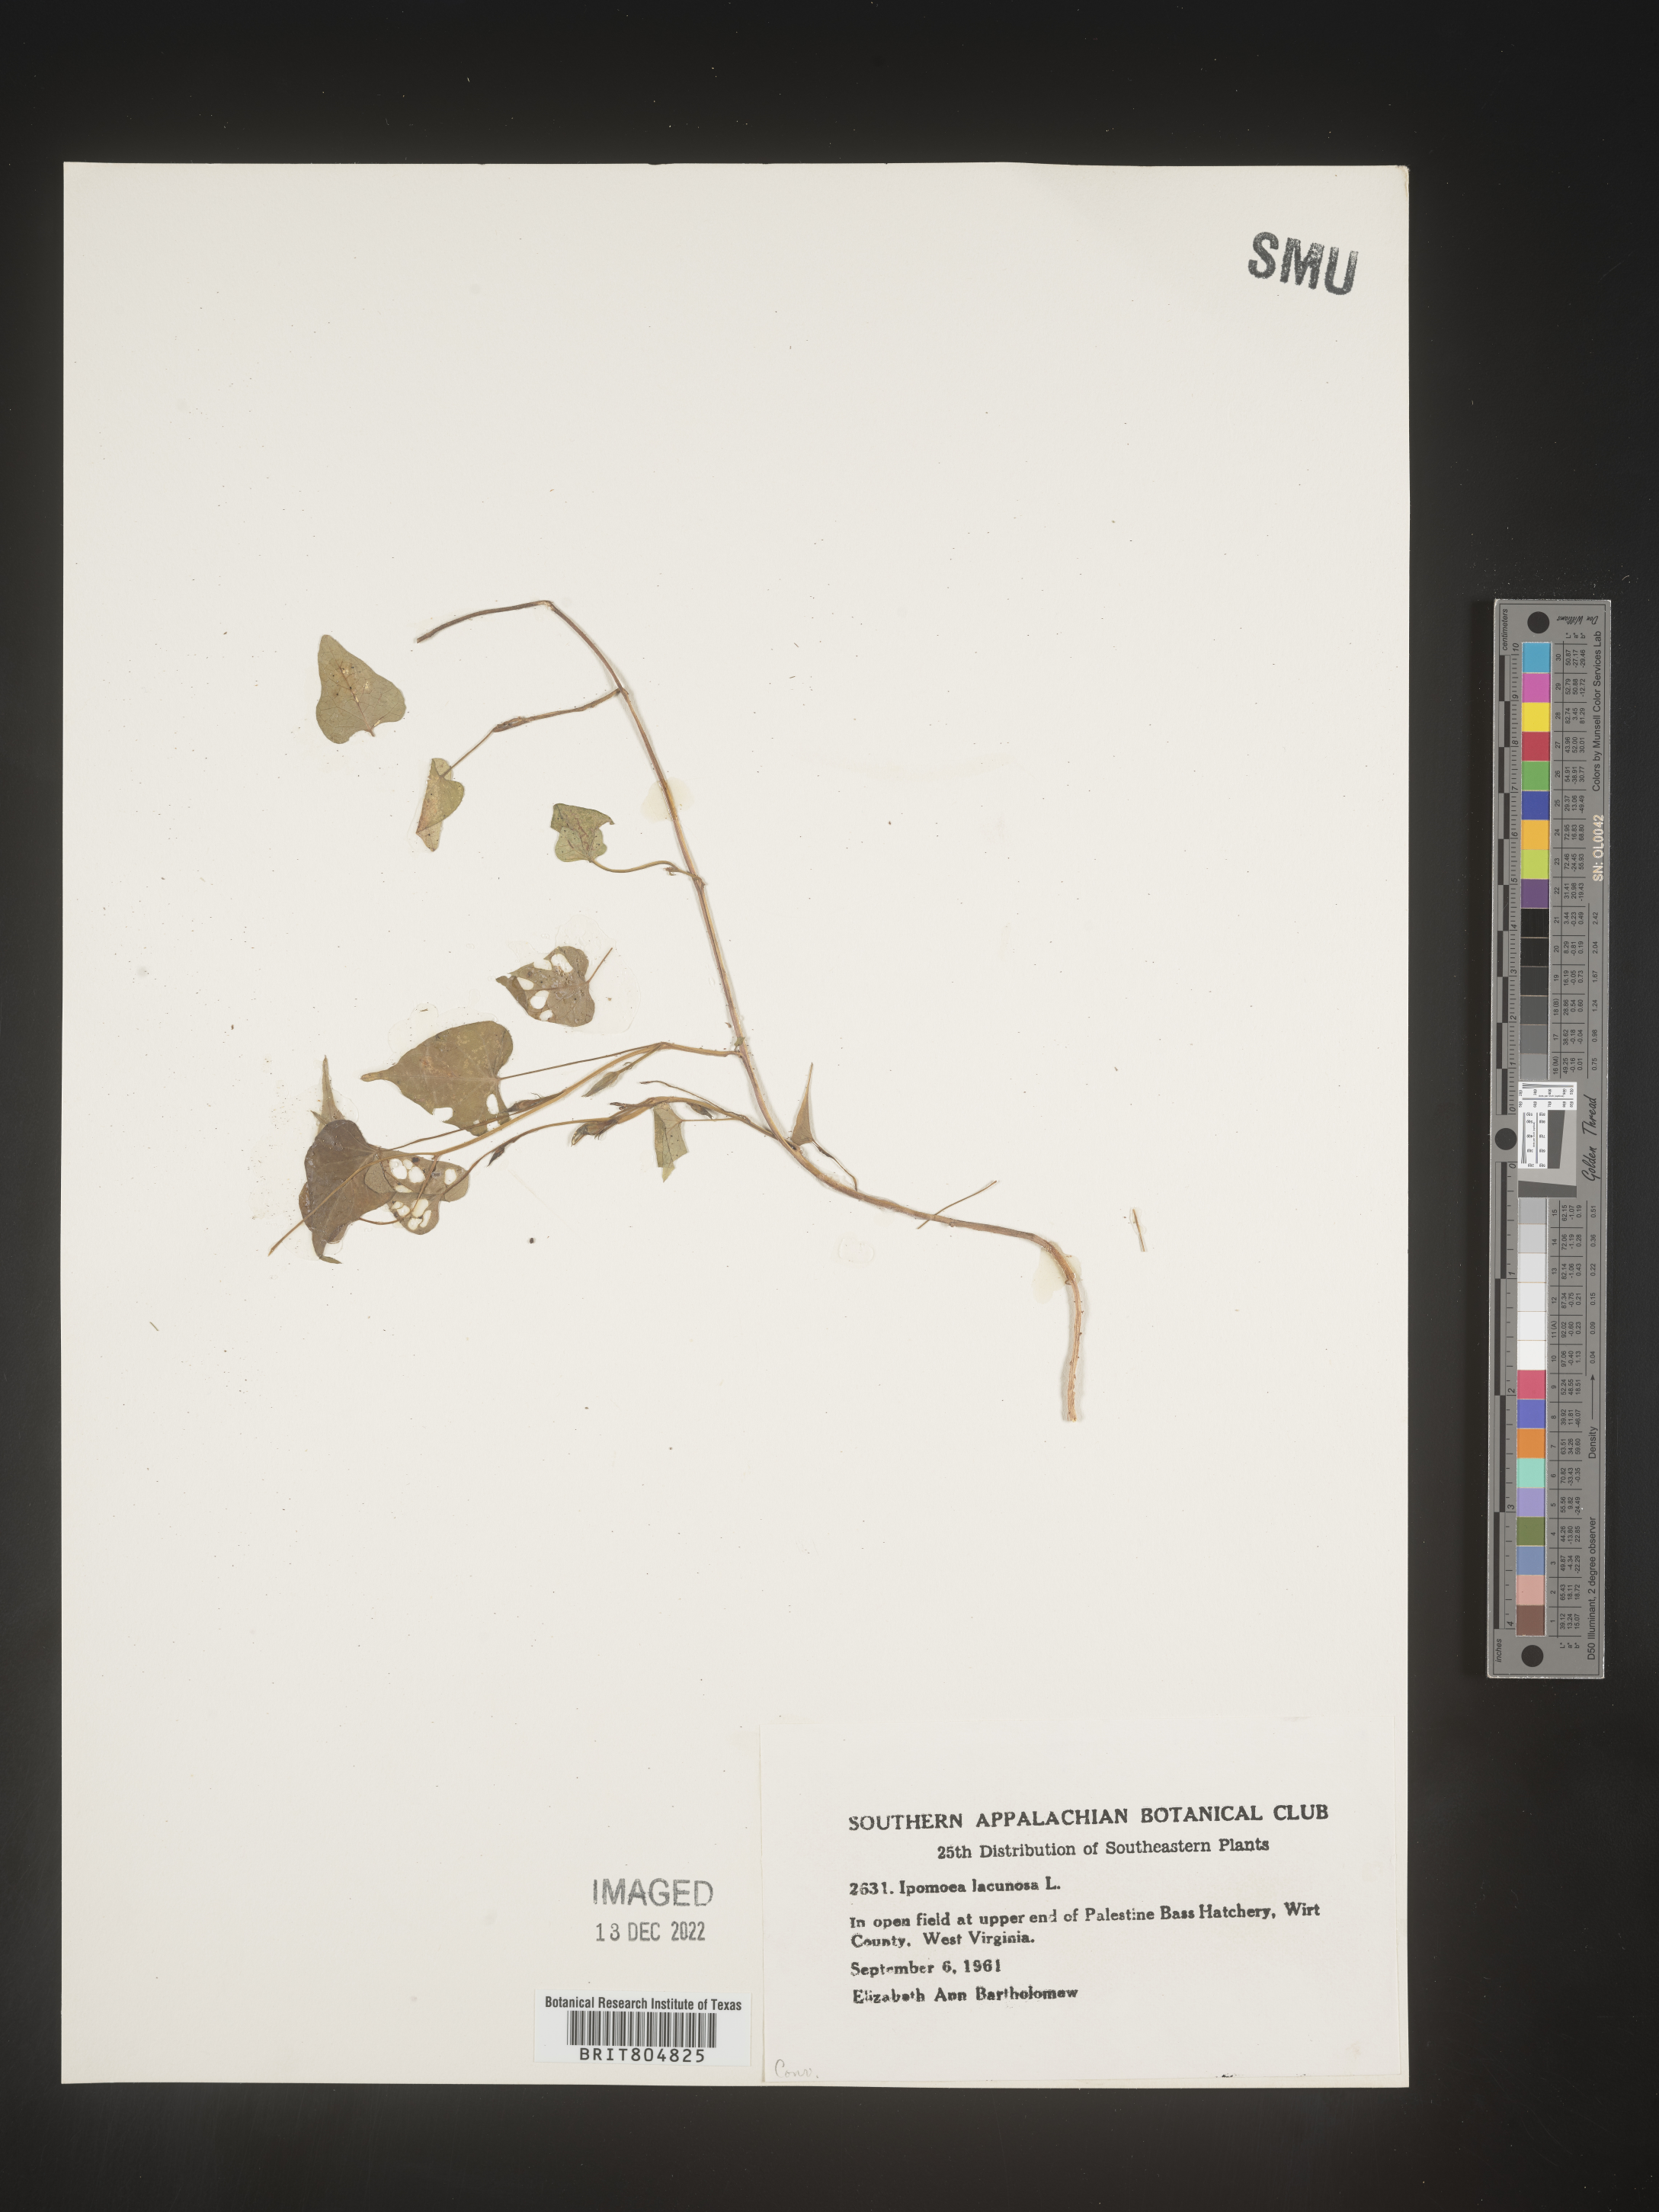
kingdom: Plantae
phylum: Tracheophyta
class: Magnoliopsida
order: Solanales
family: Convolvulaceae
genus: Ipomoea
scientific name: Ipomoea lacunosa
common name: White morning-glory
